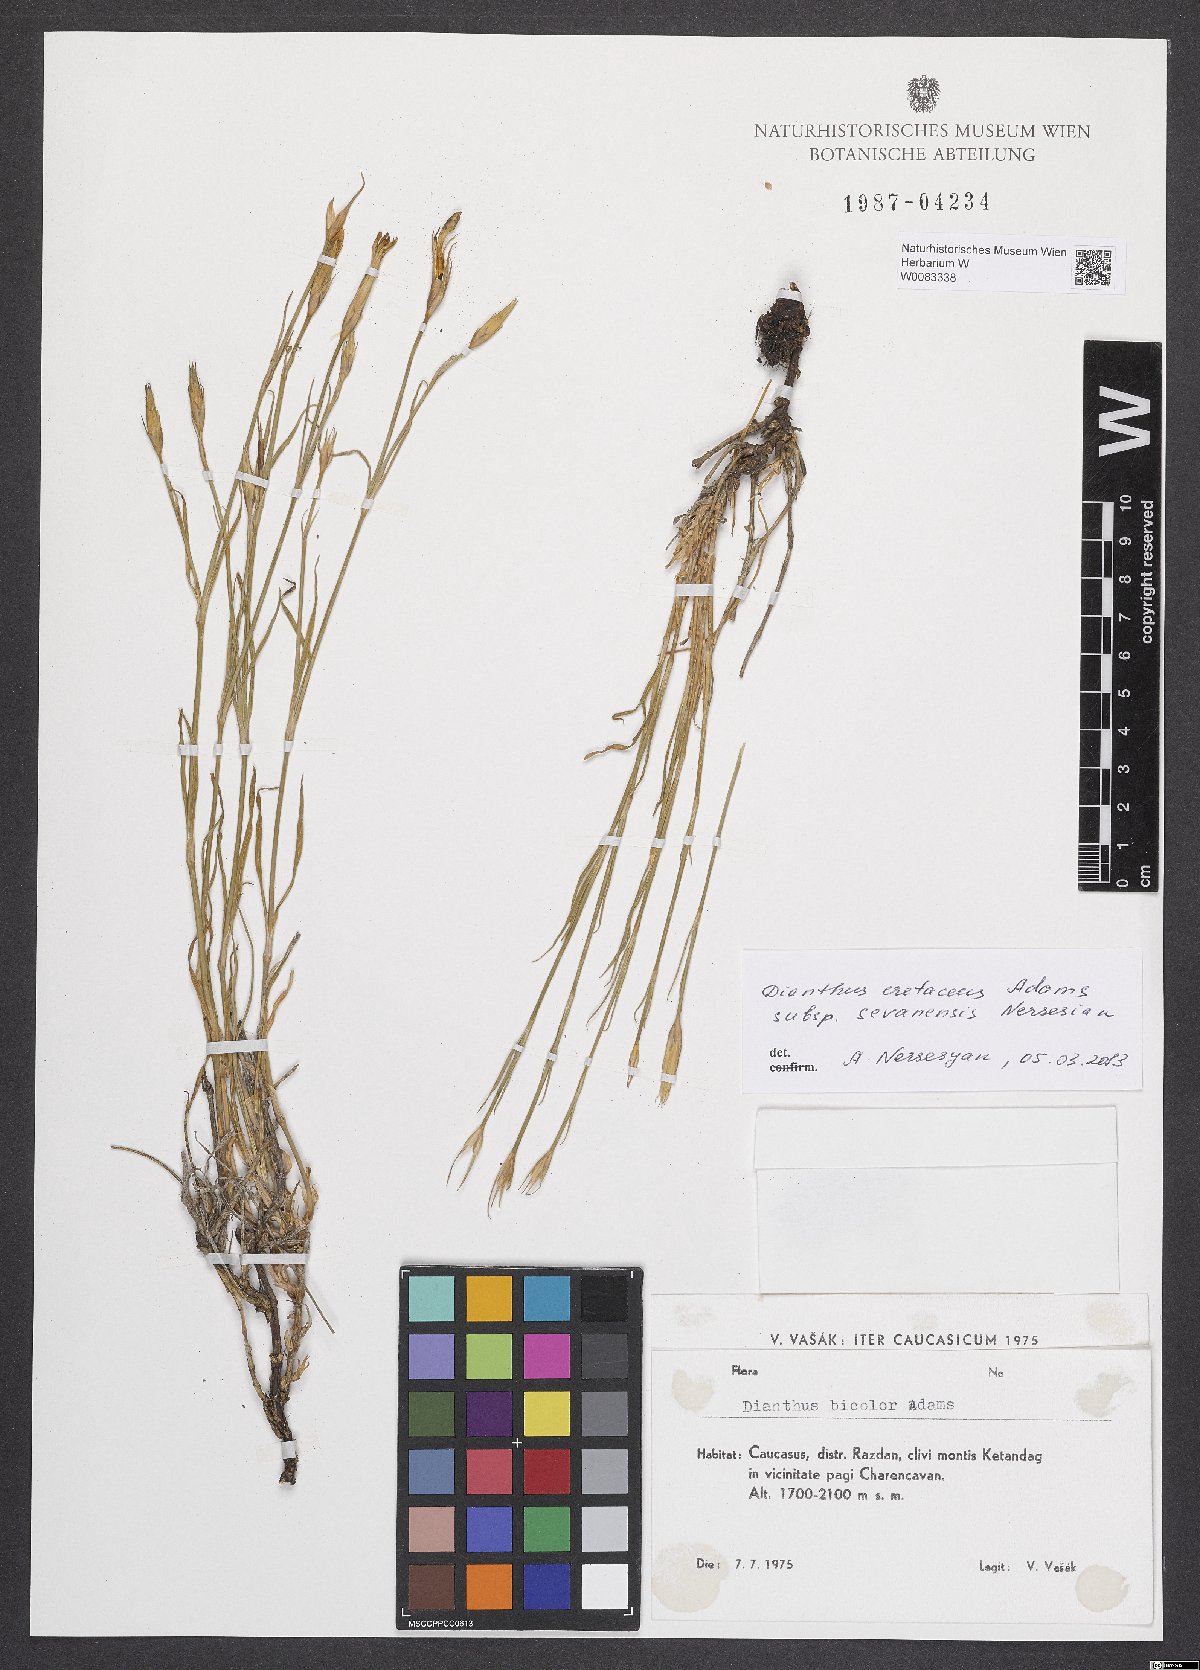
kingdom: Plantae
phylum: Tracheophyta
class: Magnoliopsida
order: Caryophyllales
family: Caryophyllaceae
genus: Dianthus
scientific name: Dianthus cretaceus
